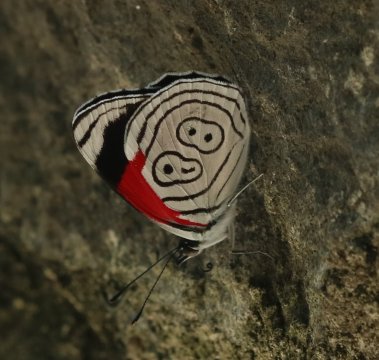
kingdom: Animalia
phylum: Arthropoda
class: Insecta
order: Lepidoptera
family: Nymphalidae
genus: Diaethria
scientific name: Diaethria anna
